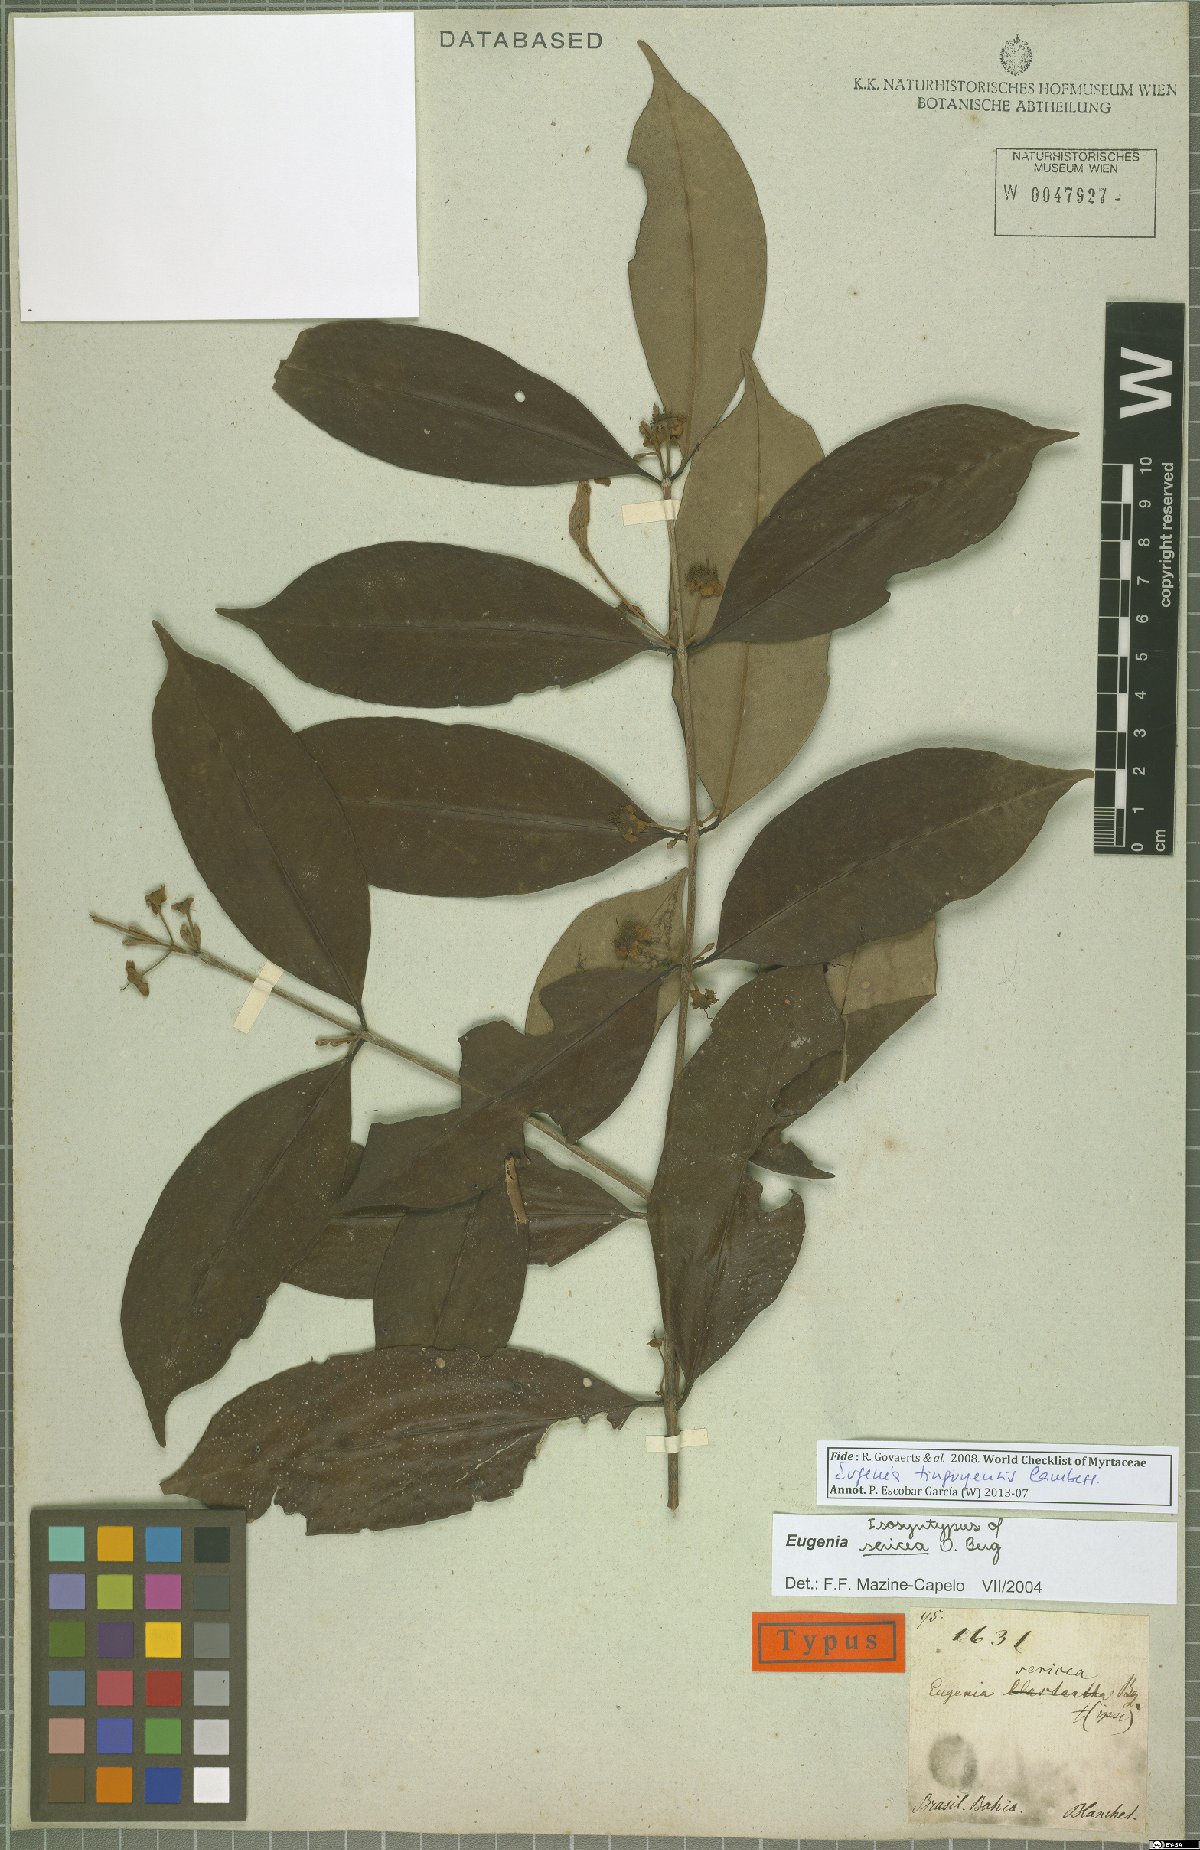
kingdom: Plantae
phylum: Tracheophyta
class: Magnoliopsida
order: Myrtales
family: Myrtaceae
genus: Eugenia
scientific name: Eugenia pisiformis
